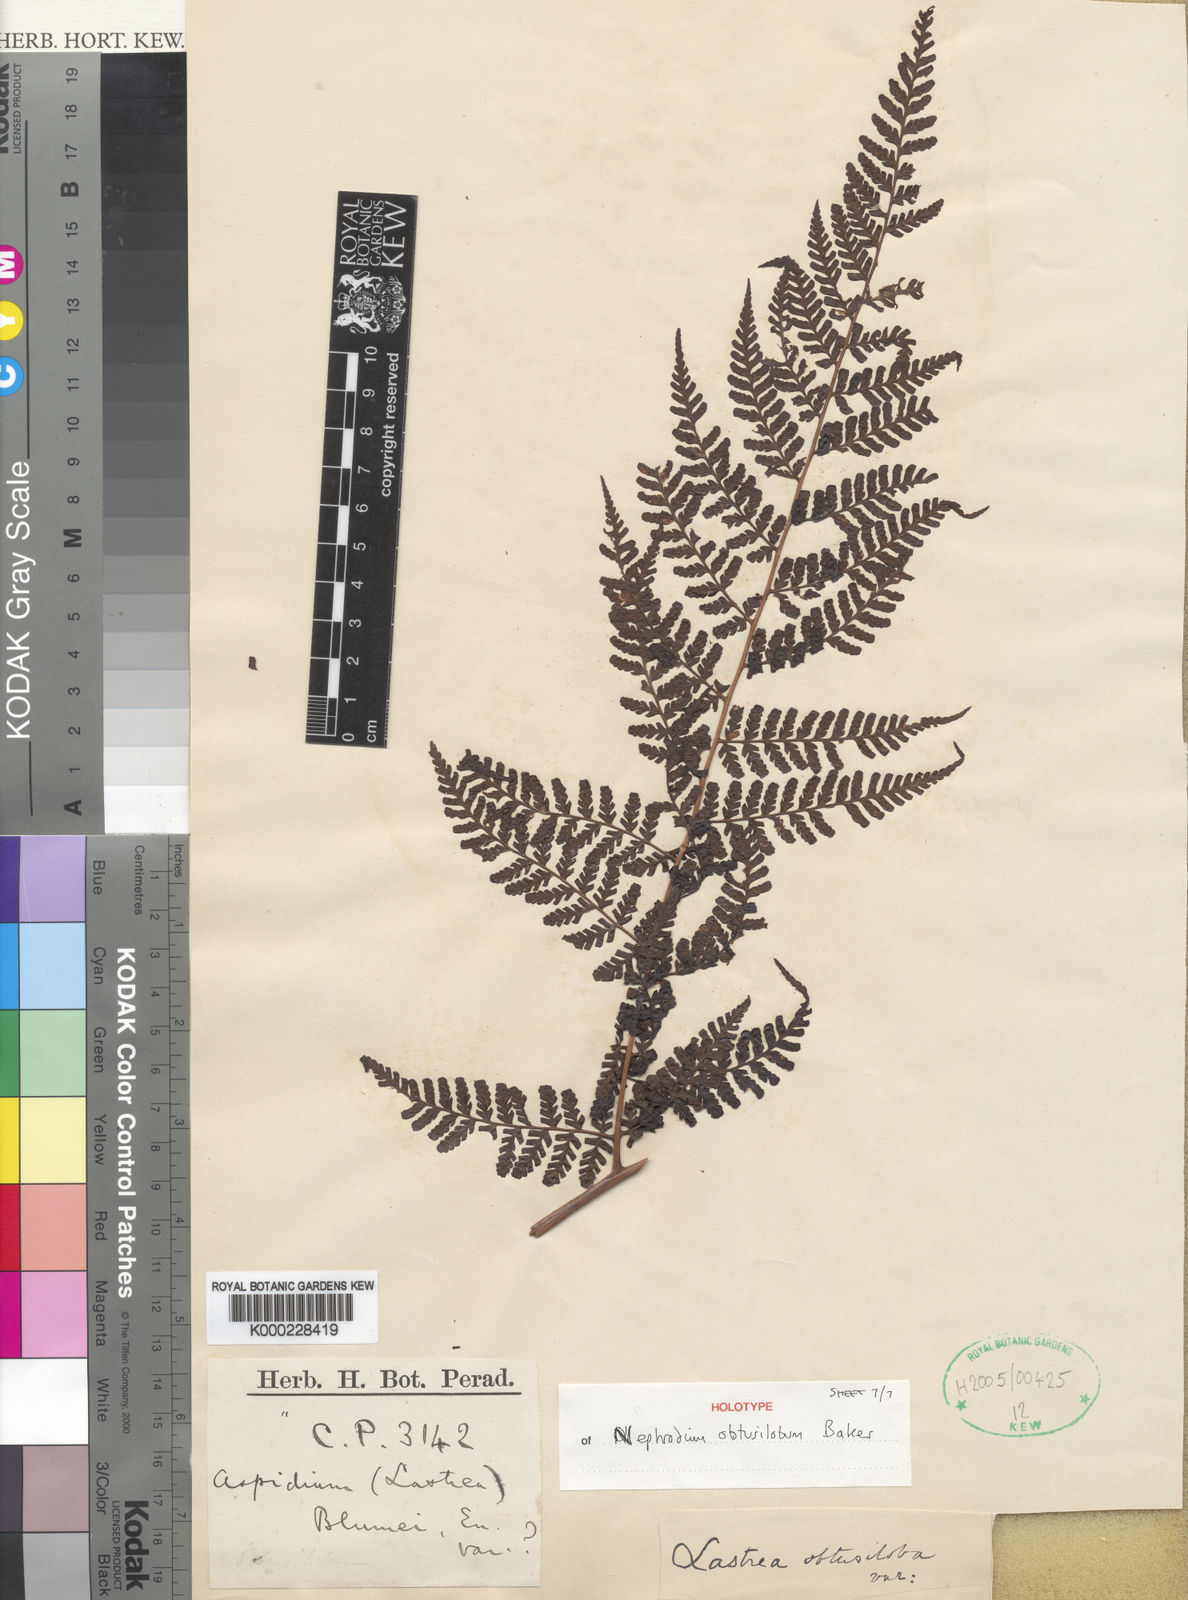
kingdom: Plantae
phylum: Tracheophyta
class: Polypodiopsida
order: Polypodiales
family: Dryopteridaceae
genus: Dryopteris
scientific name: Dryopteris obtusiloba
